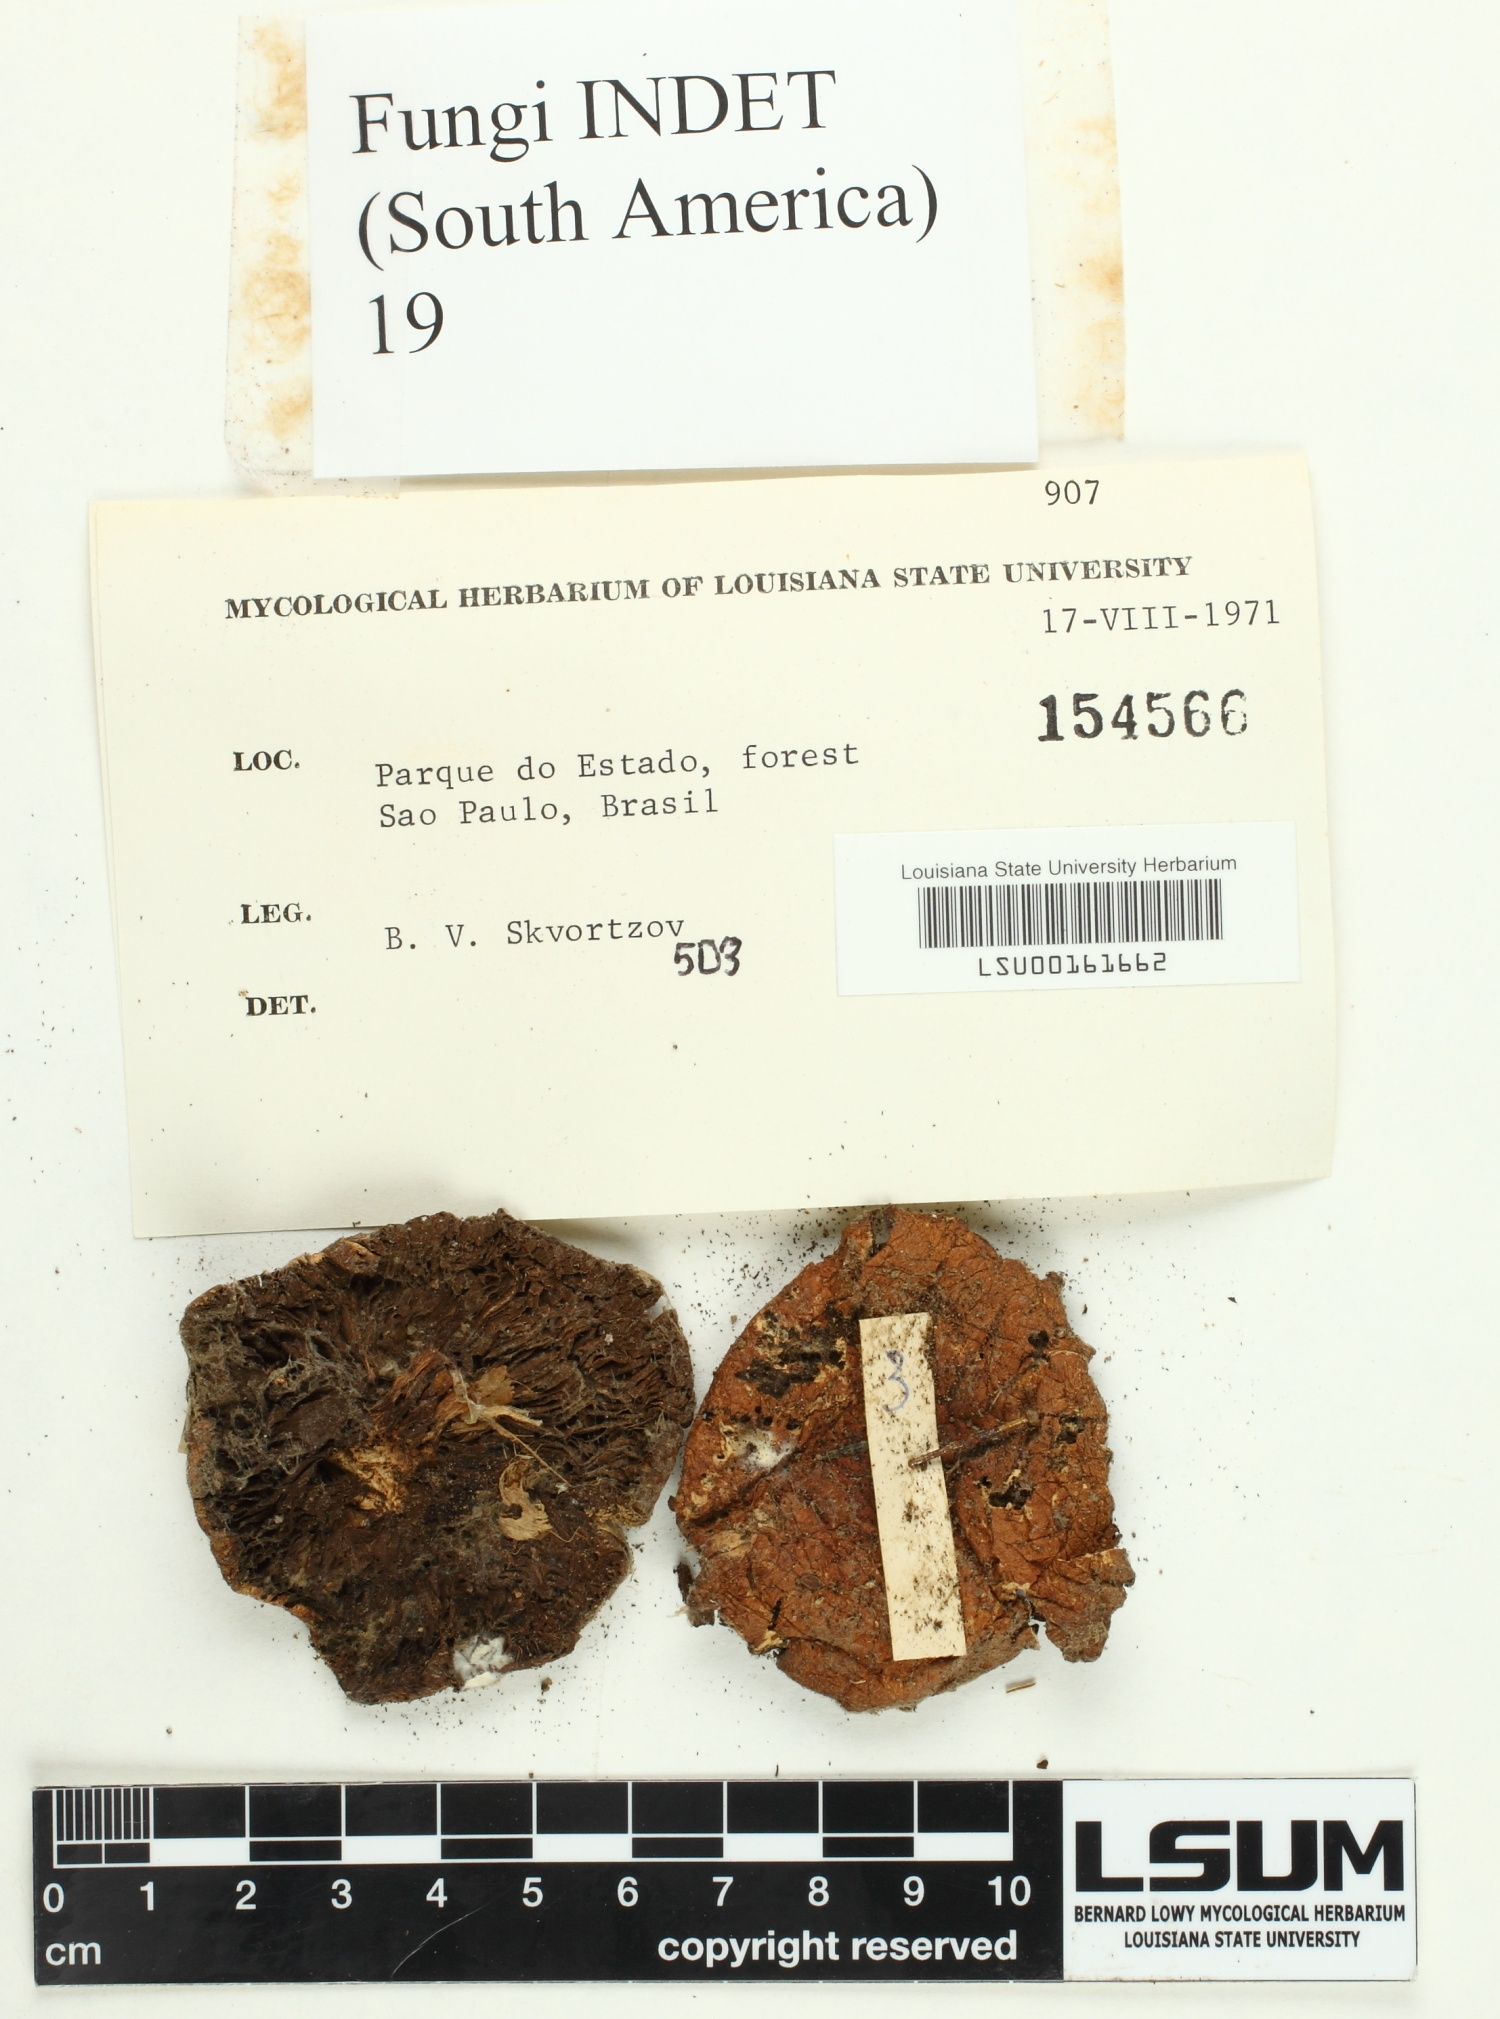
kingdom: Fungi
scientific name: Fungi
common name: Fungi
